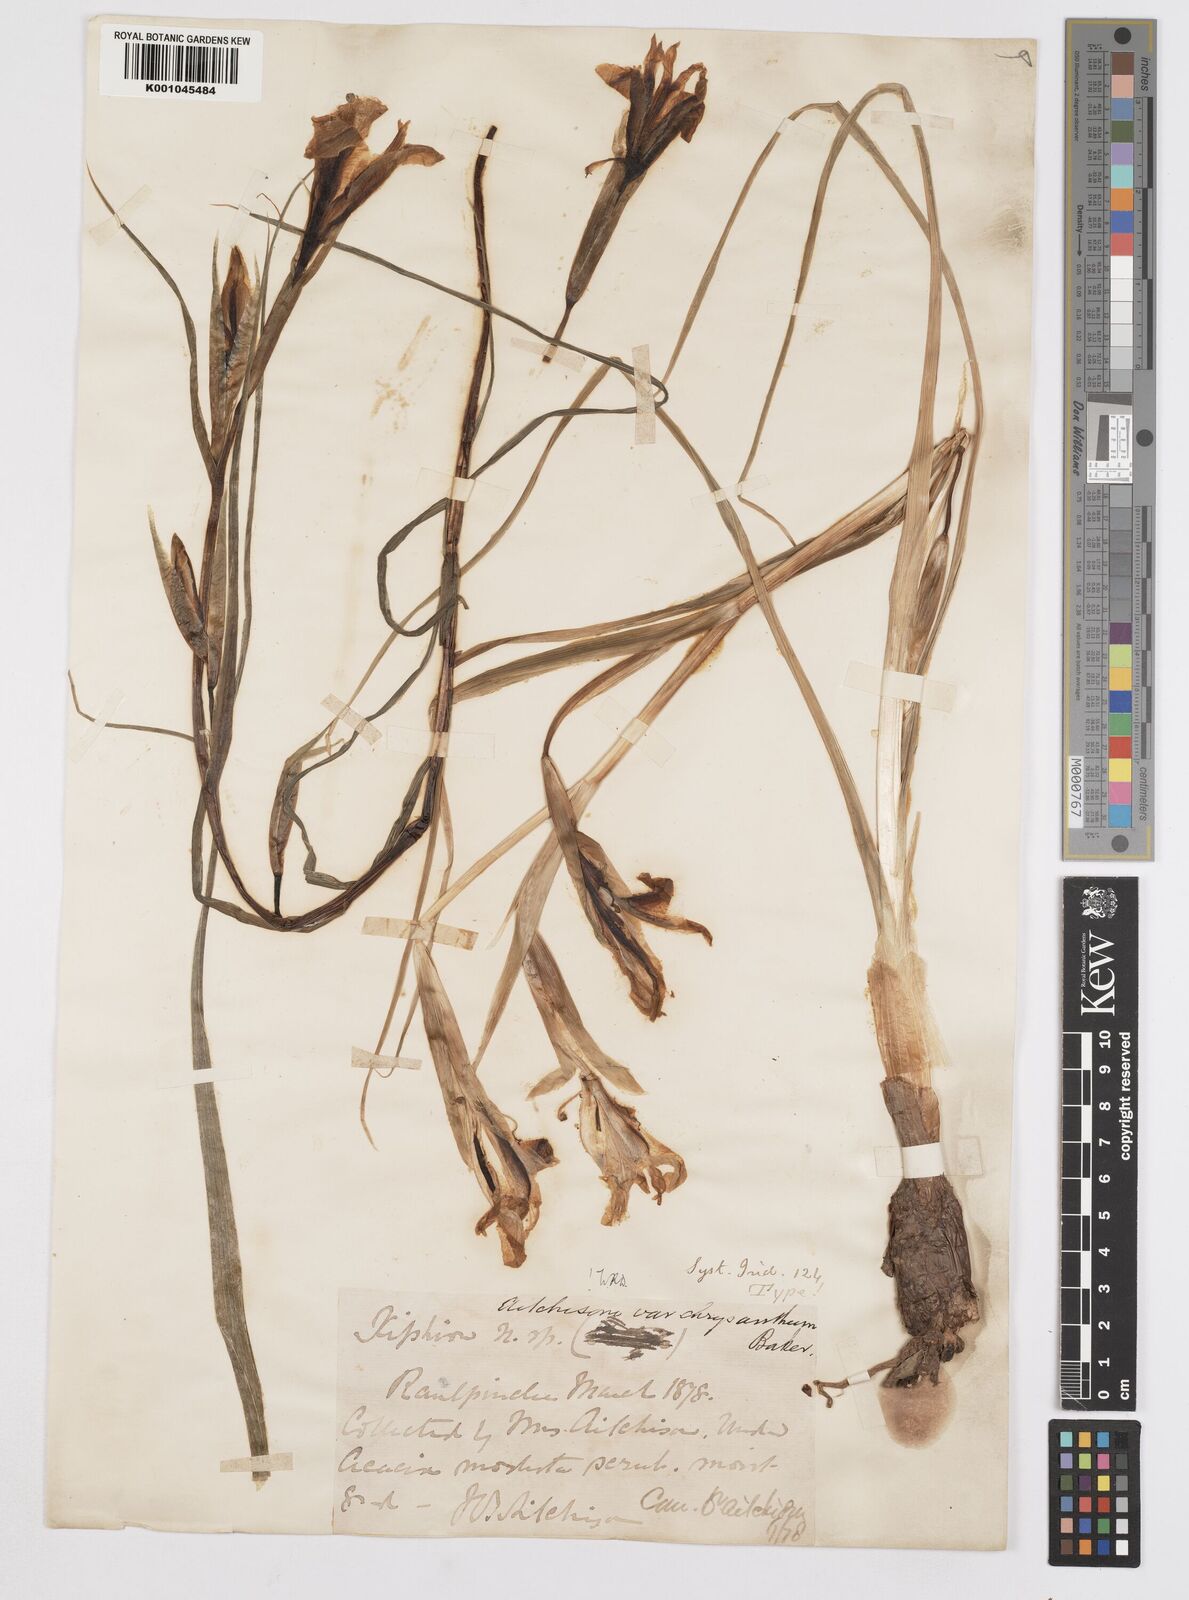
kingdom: Plantae
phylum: Tracheophyta
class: Liliopsida
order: Asparagales
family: Iridaceae
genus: Iris
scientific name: Iris aitchisonii
